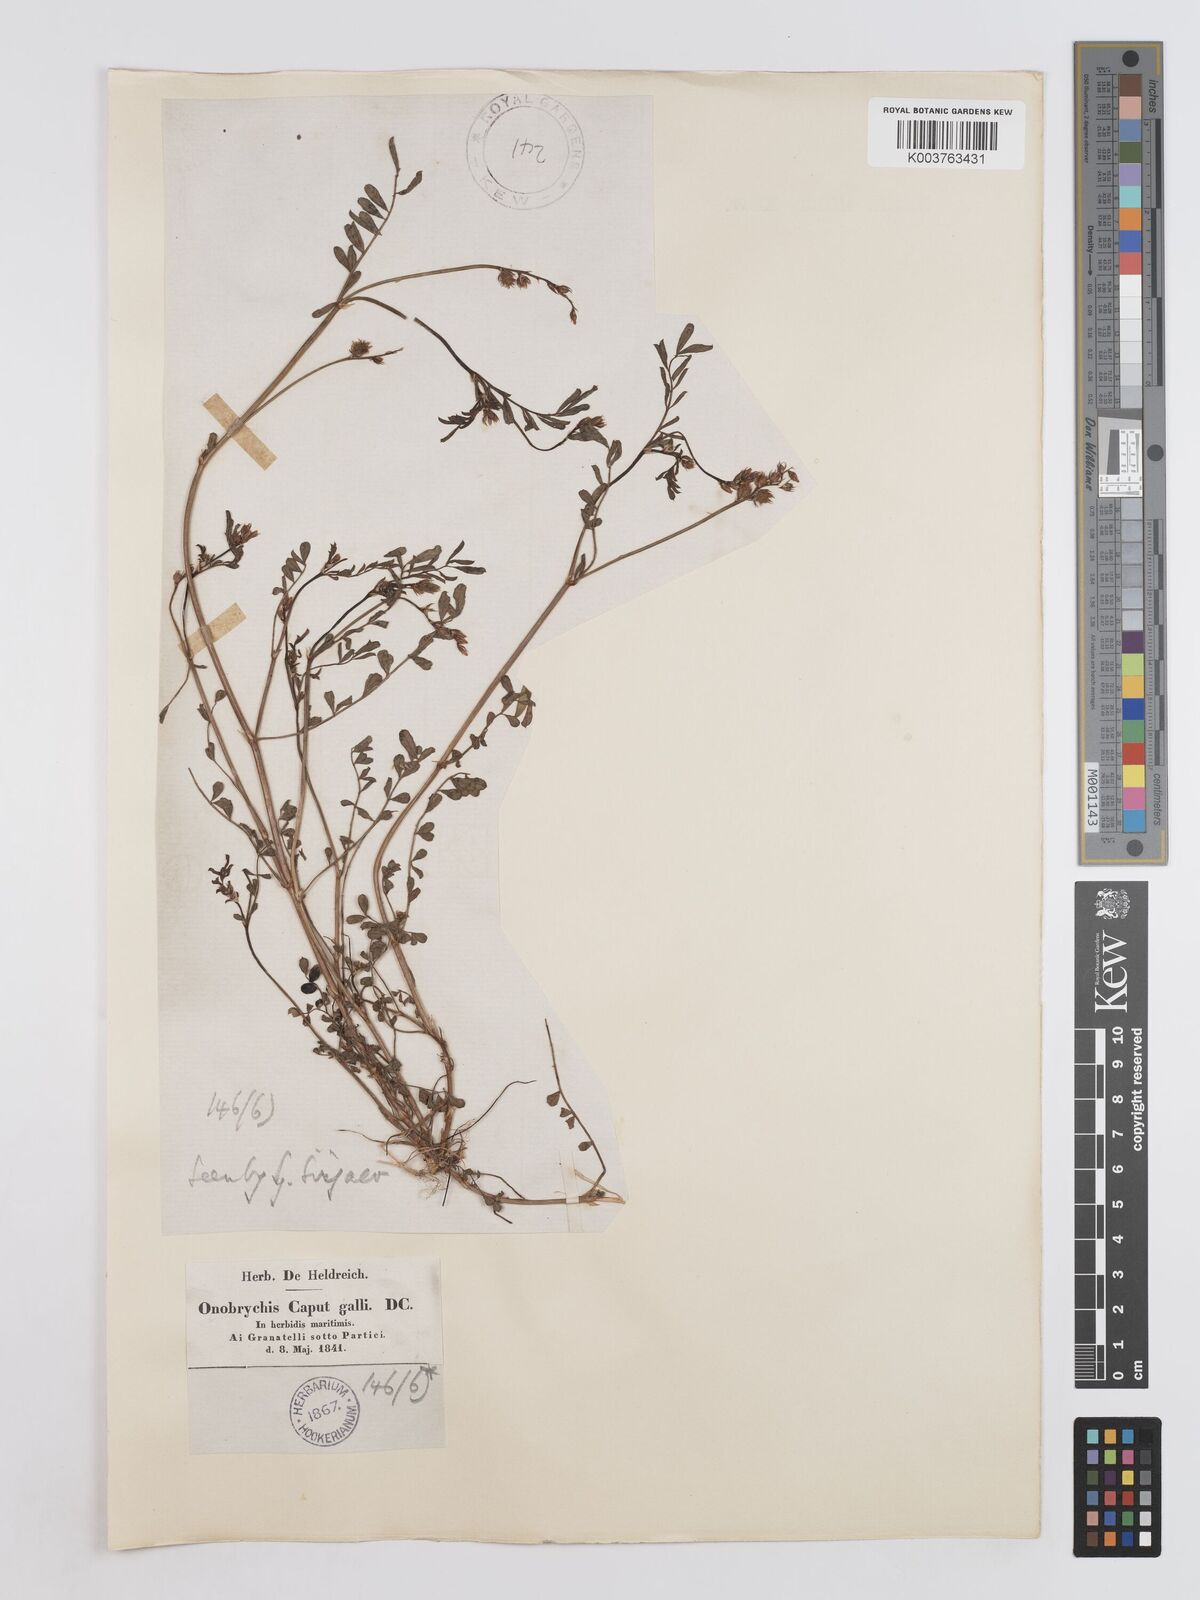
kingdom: Plantae
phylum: Tracheophyta
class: Magnoliopsida
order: Fabales
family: Fabaceae
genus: Onobrychis
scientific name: Onobrychis caput-galli
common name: Cockscomb sainfoin
